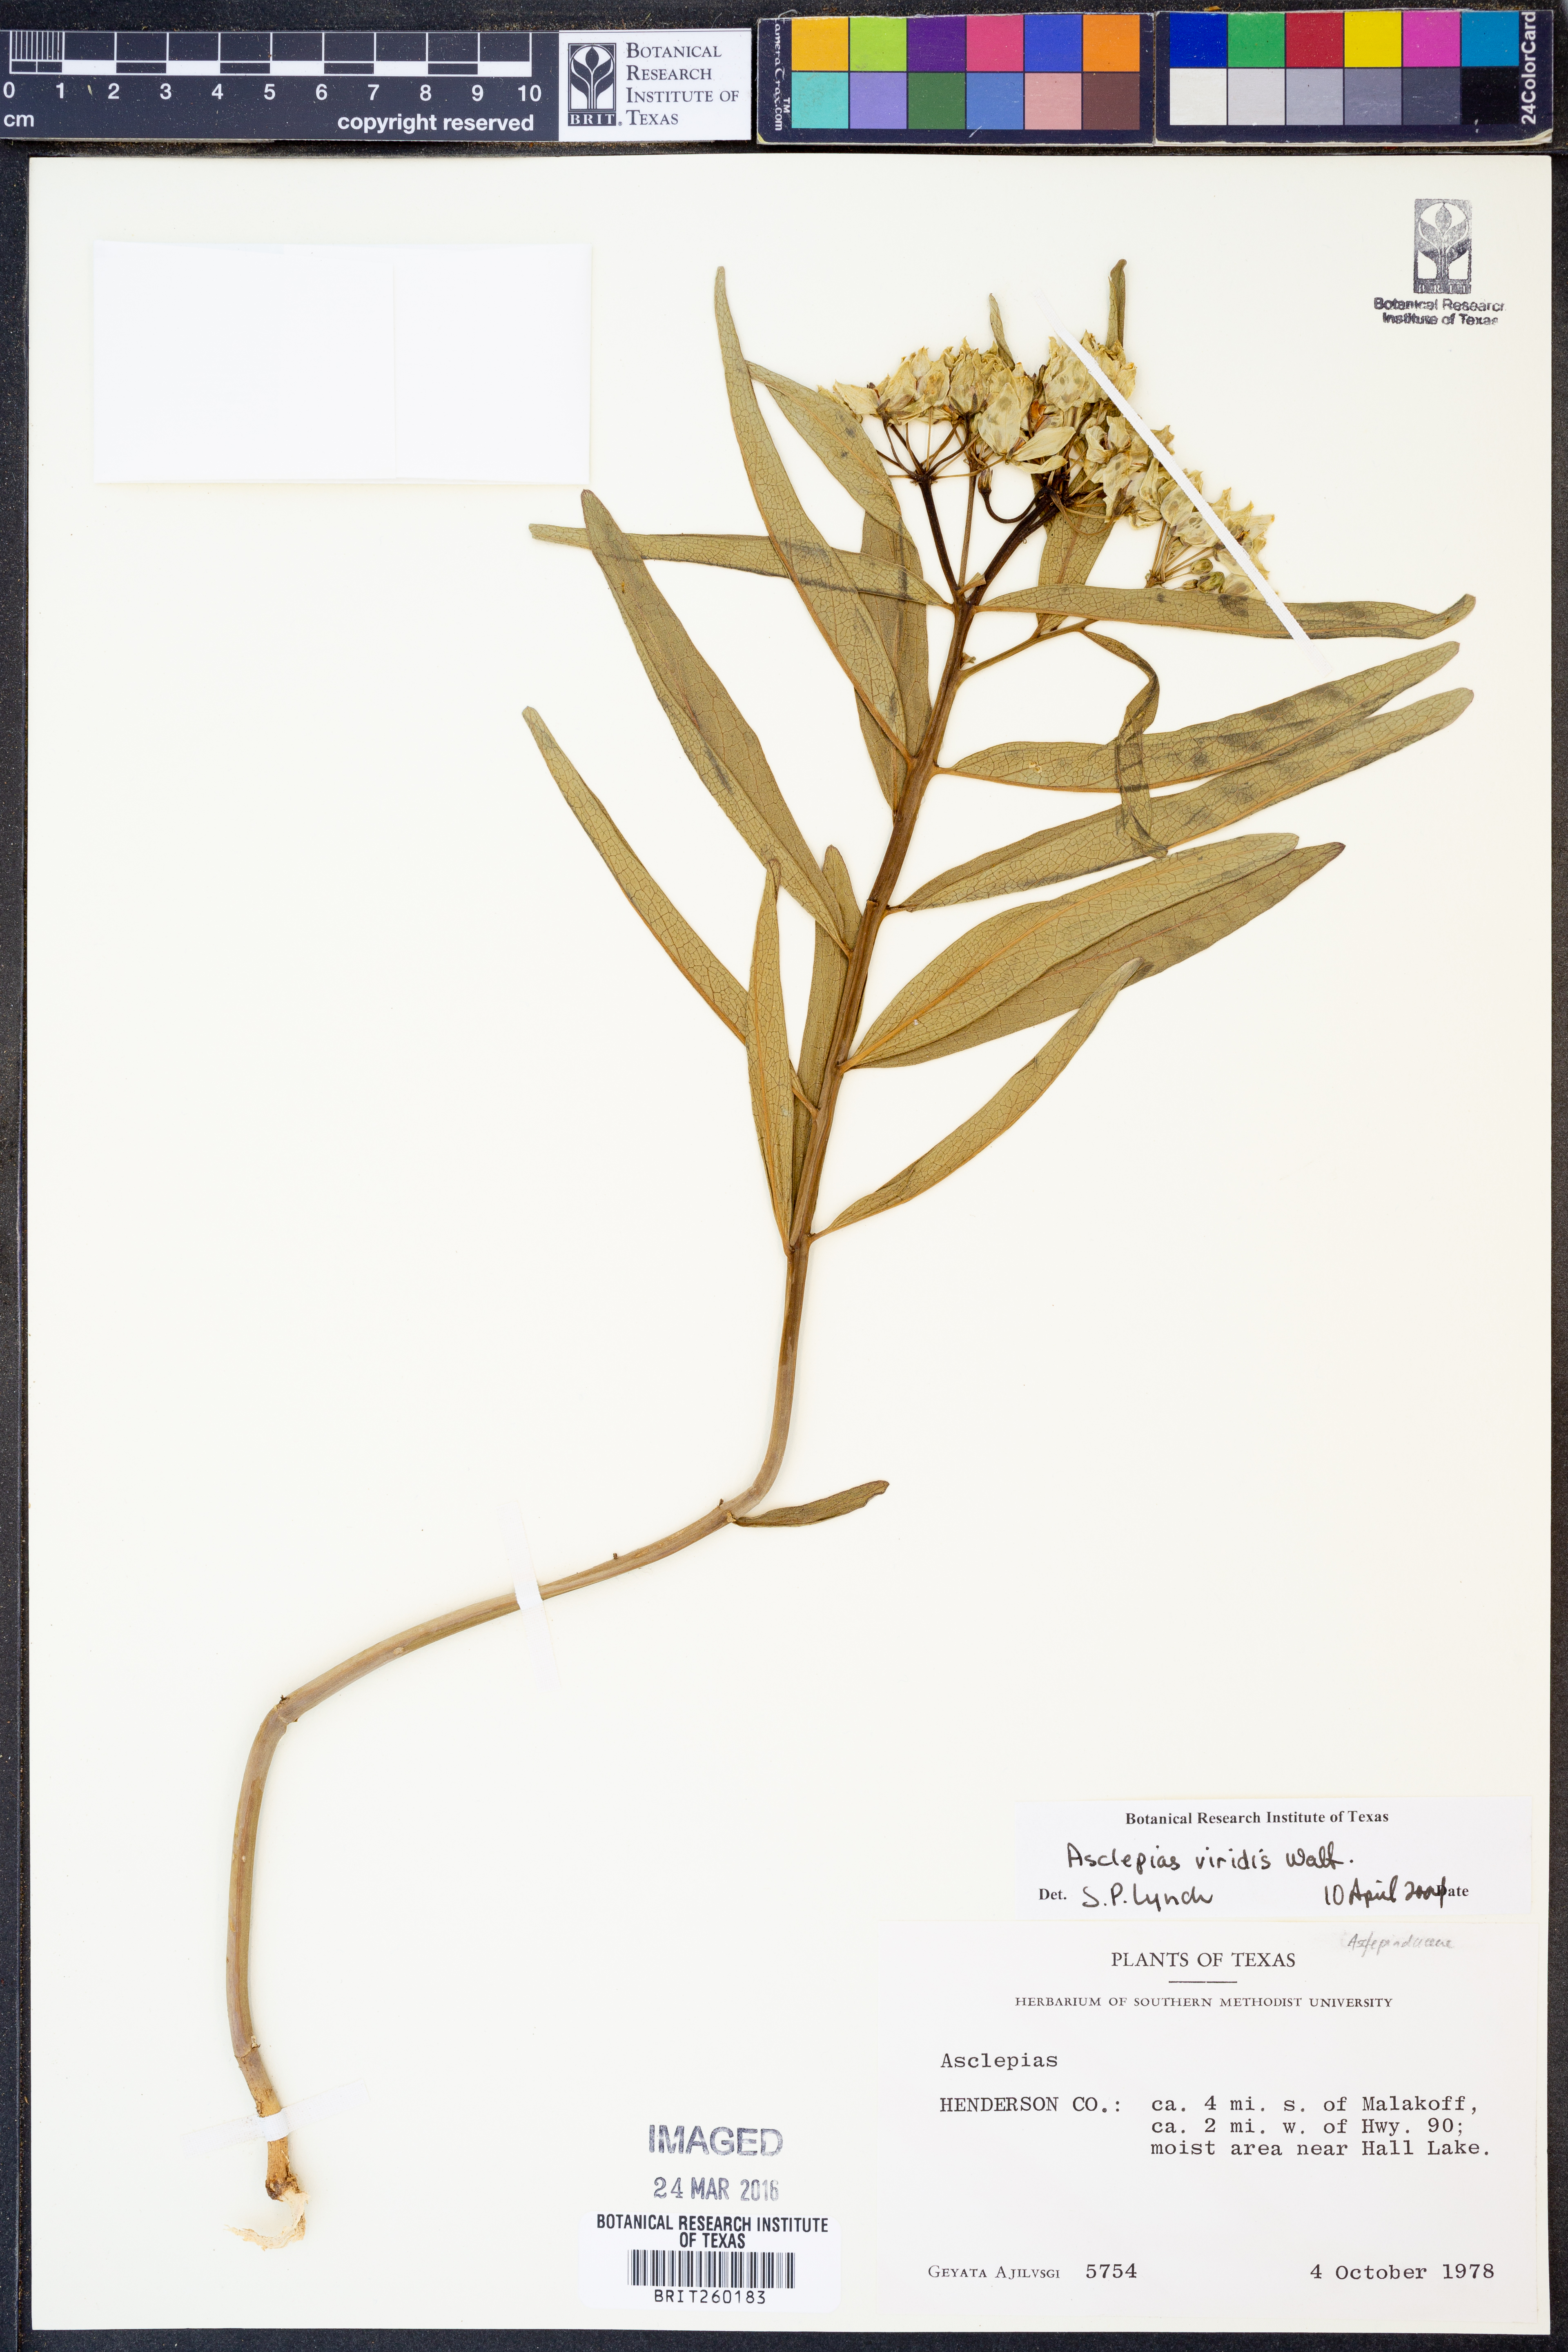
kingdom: Plantae
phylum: Tracheophyta
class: Magnoliopsida
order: Gentianales
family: Apocynaceae
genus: Asclepias
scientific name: Asclepias viridis
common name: Antelope-horns
